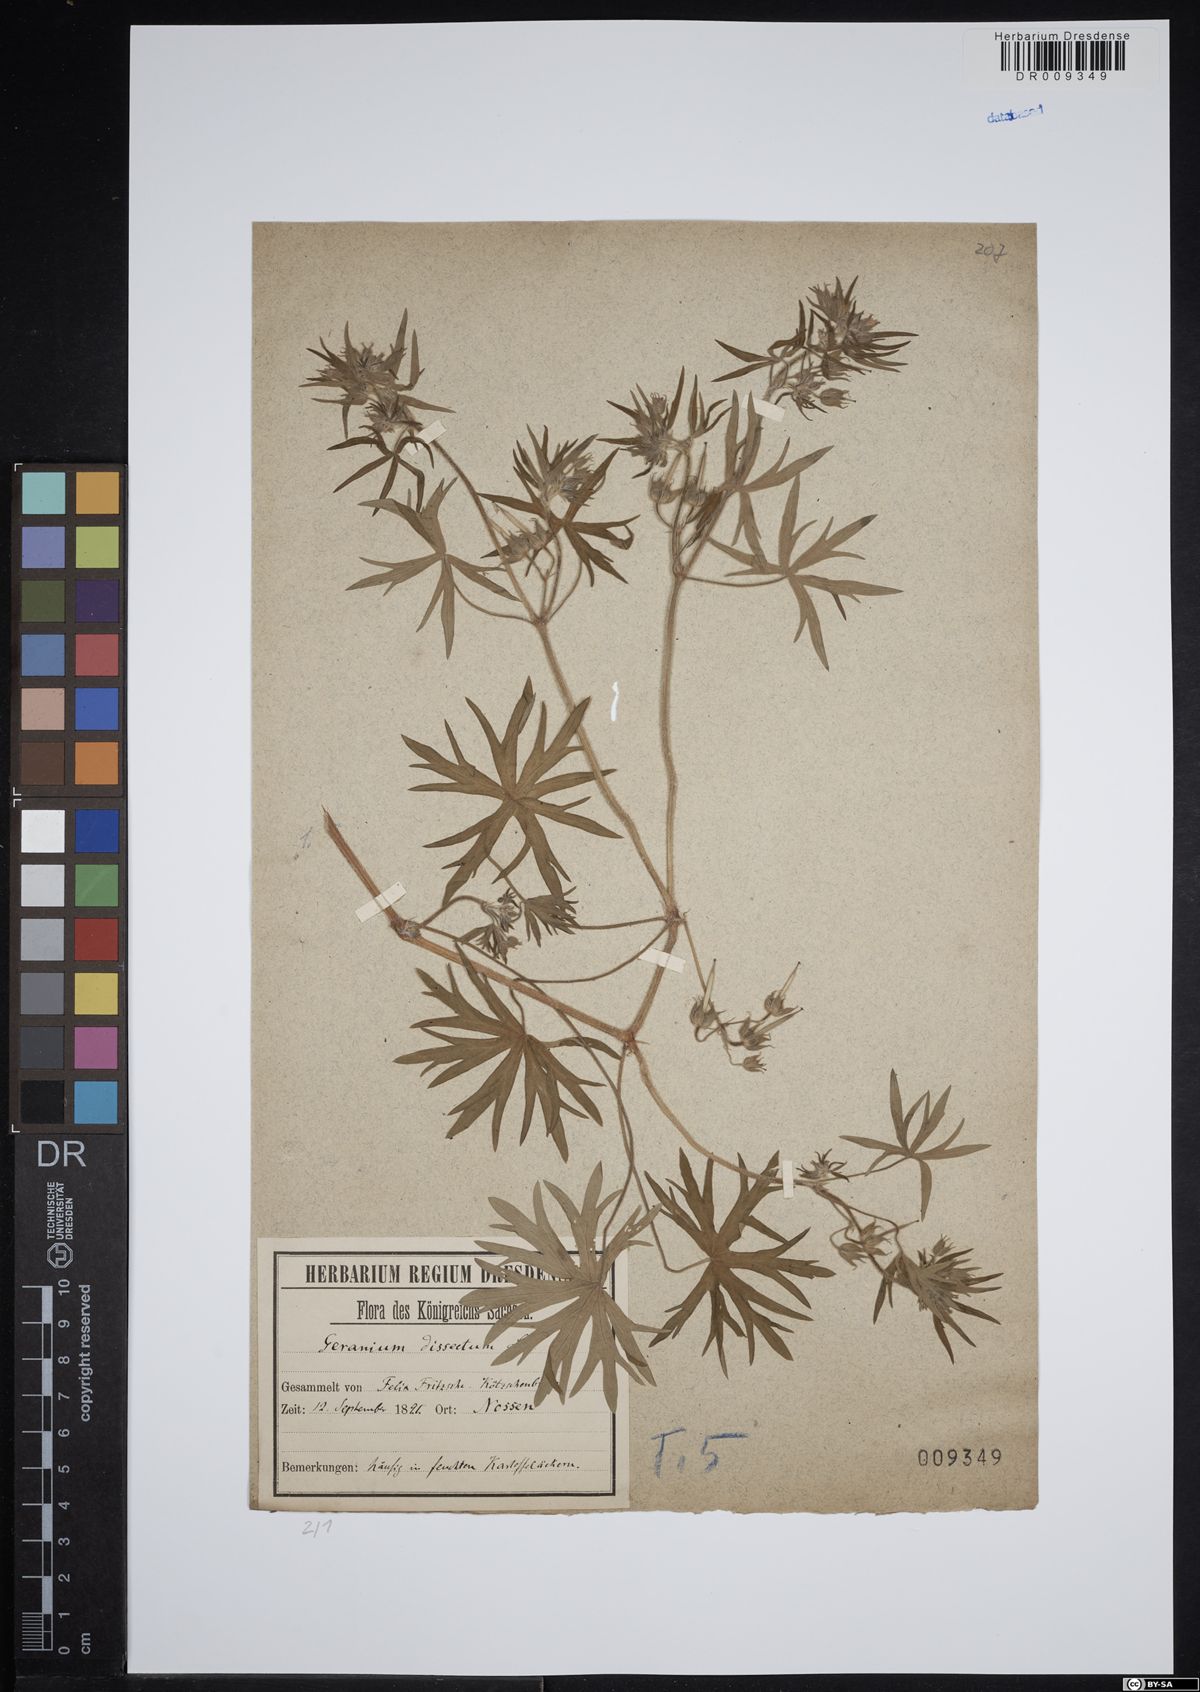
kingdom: Plantae
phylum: Tracheophyta
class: Magnoliopsida
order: Geraniales
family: Geraniaceae
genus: Geranium
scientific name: Geranium dissectum
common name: Cut-leaved crane's-bill
